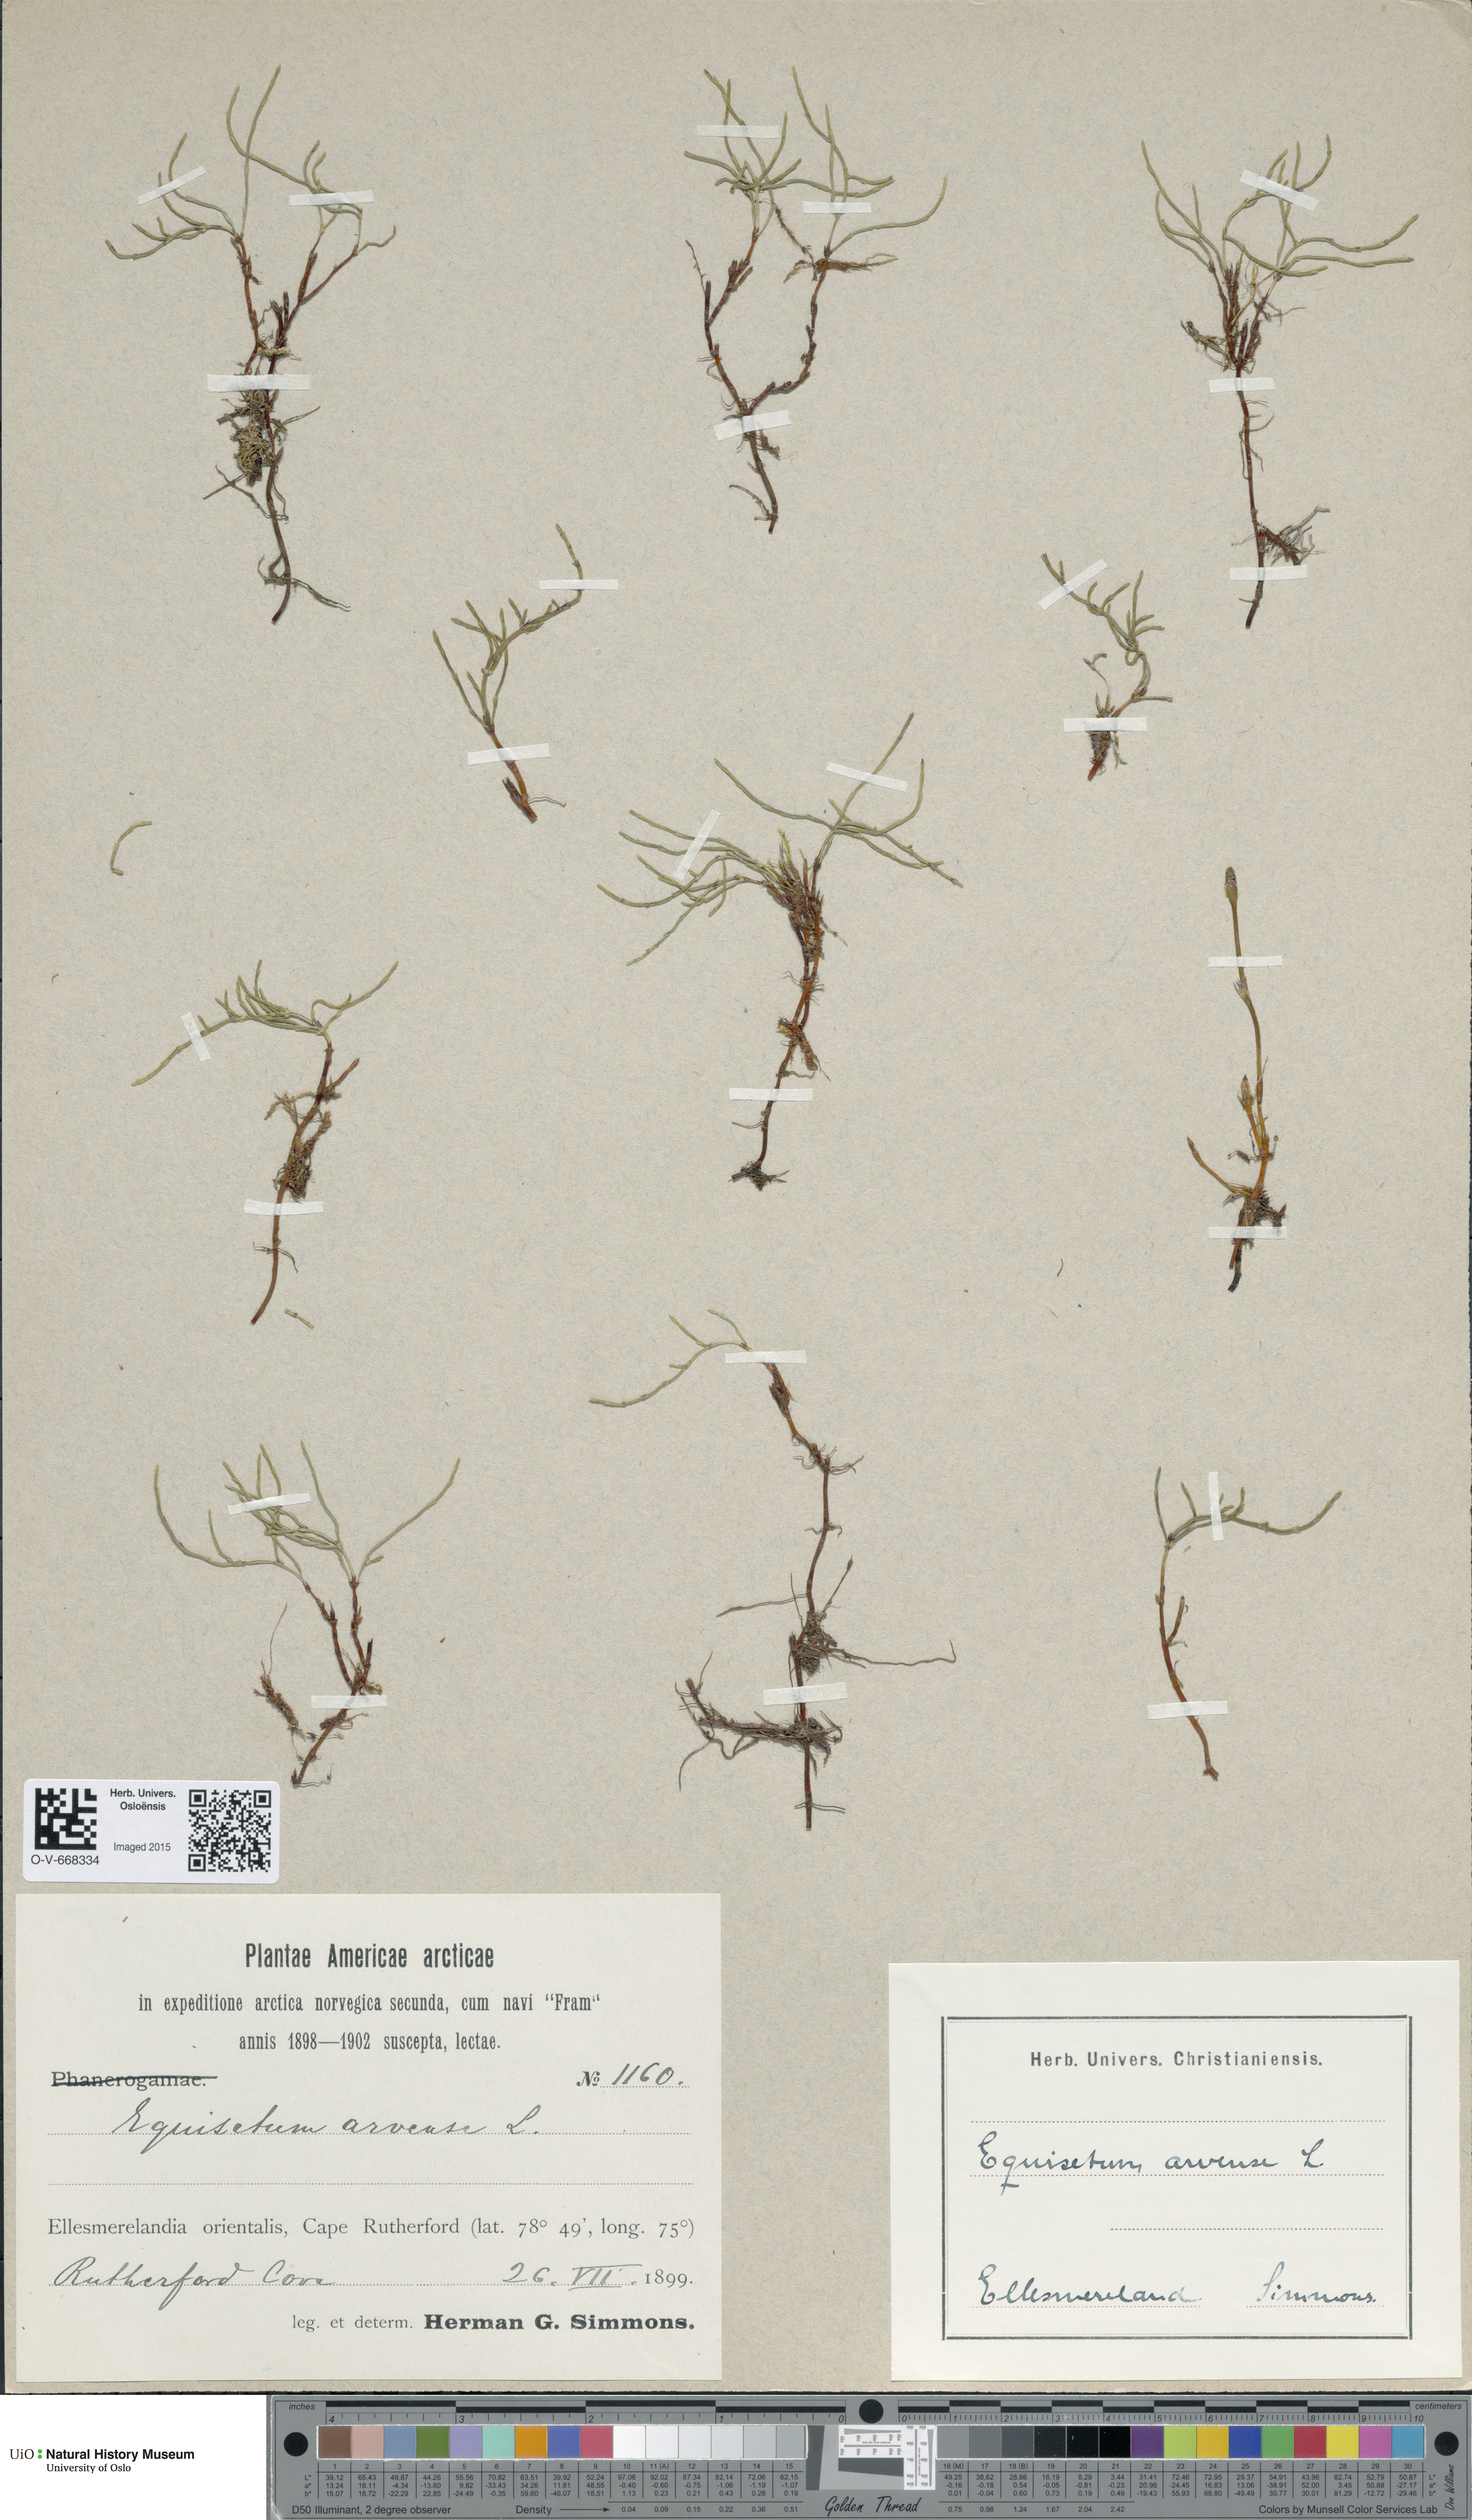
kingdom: Plantae
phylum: Tracheophyta
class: Polypodiopsida
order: Equisetales
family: Equisetaceae
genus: Equisetum
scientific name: Equisetum arvense
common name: Field horsetail
